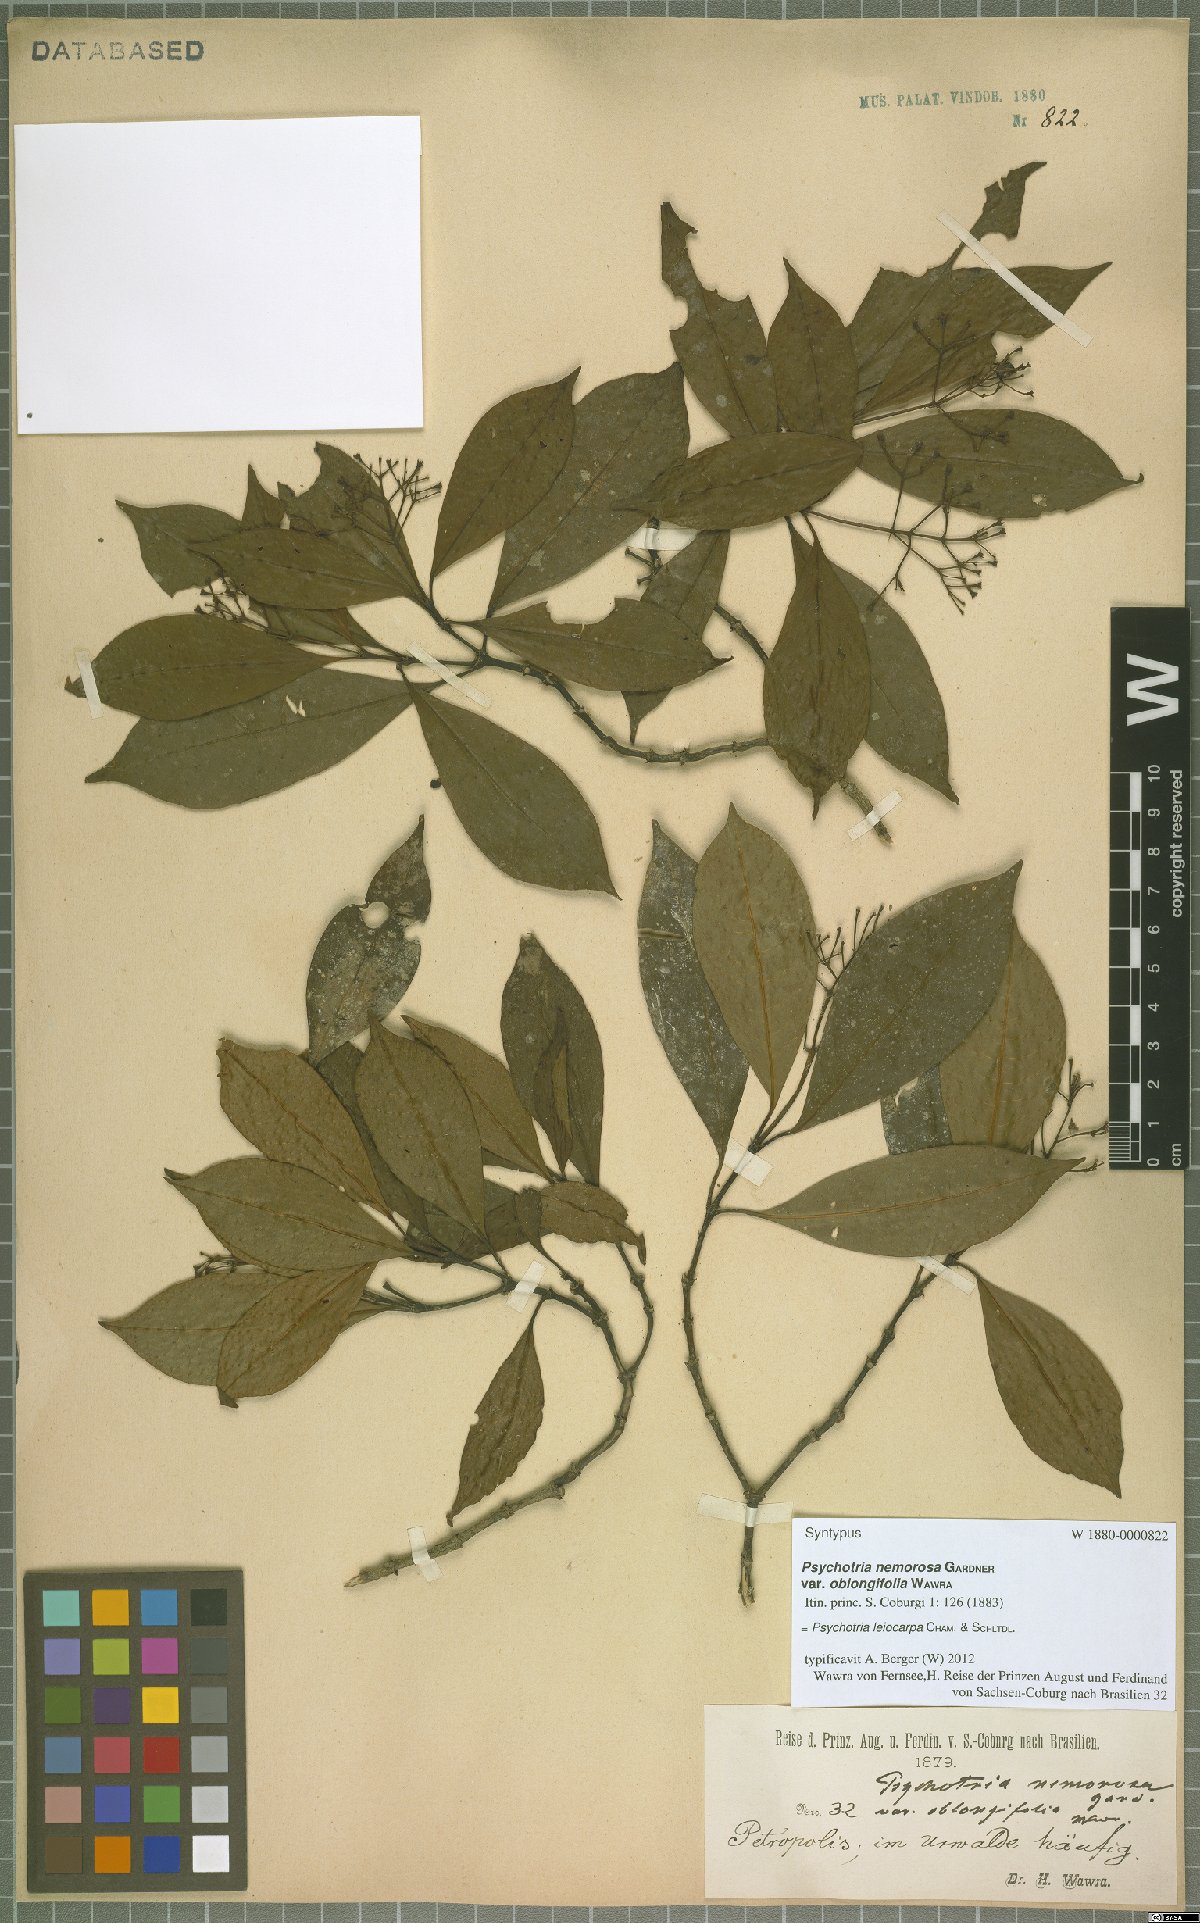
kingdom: Plantae
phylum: Tracheophyta
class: Magnoliopsida
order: Gentianales
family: Rubiaceae
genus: Psychotria
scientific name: Psychotria leiocarpa
